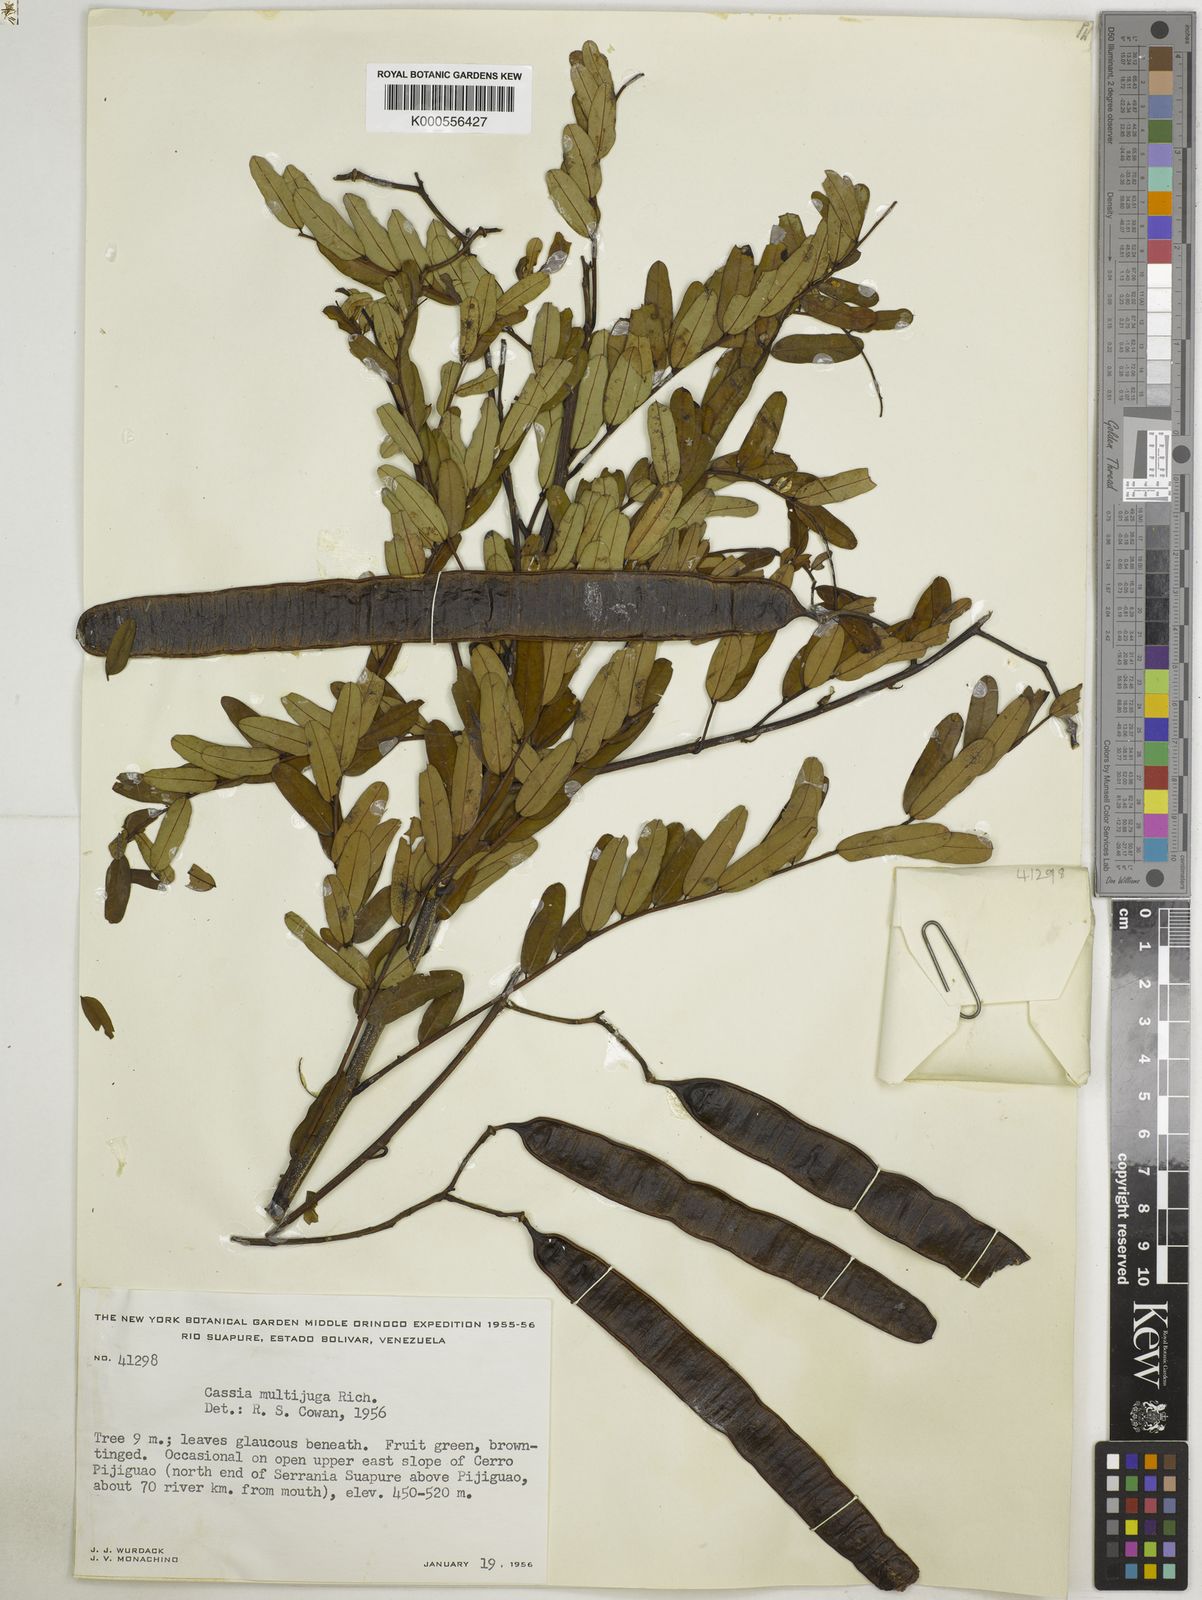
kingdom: Plantae
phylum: Tracheophyta
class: Magnoliopsida
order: Fabales
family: Fabaceae
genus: Senna
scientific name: Senna multijuga
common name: False sicklepod
